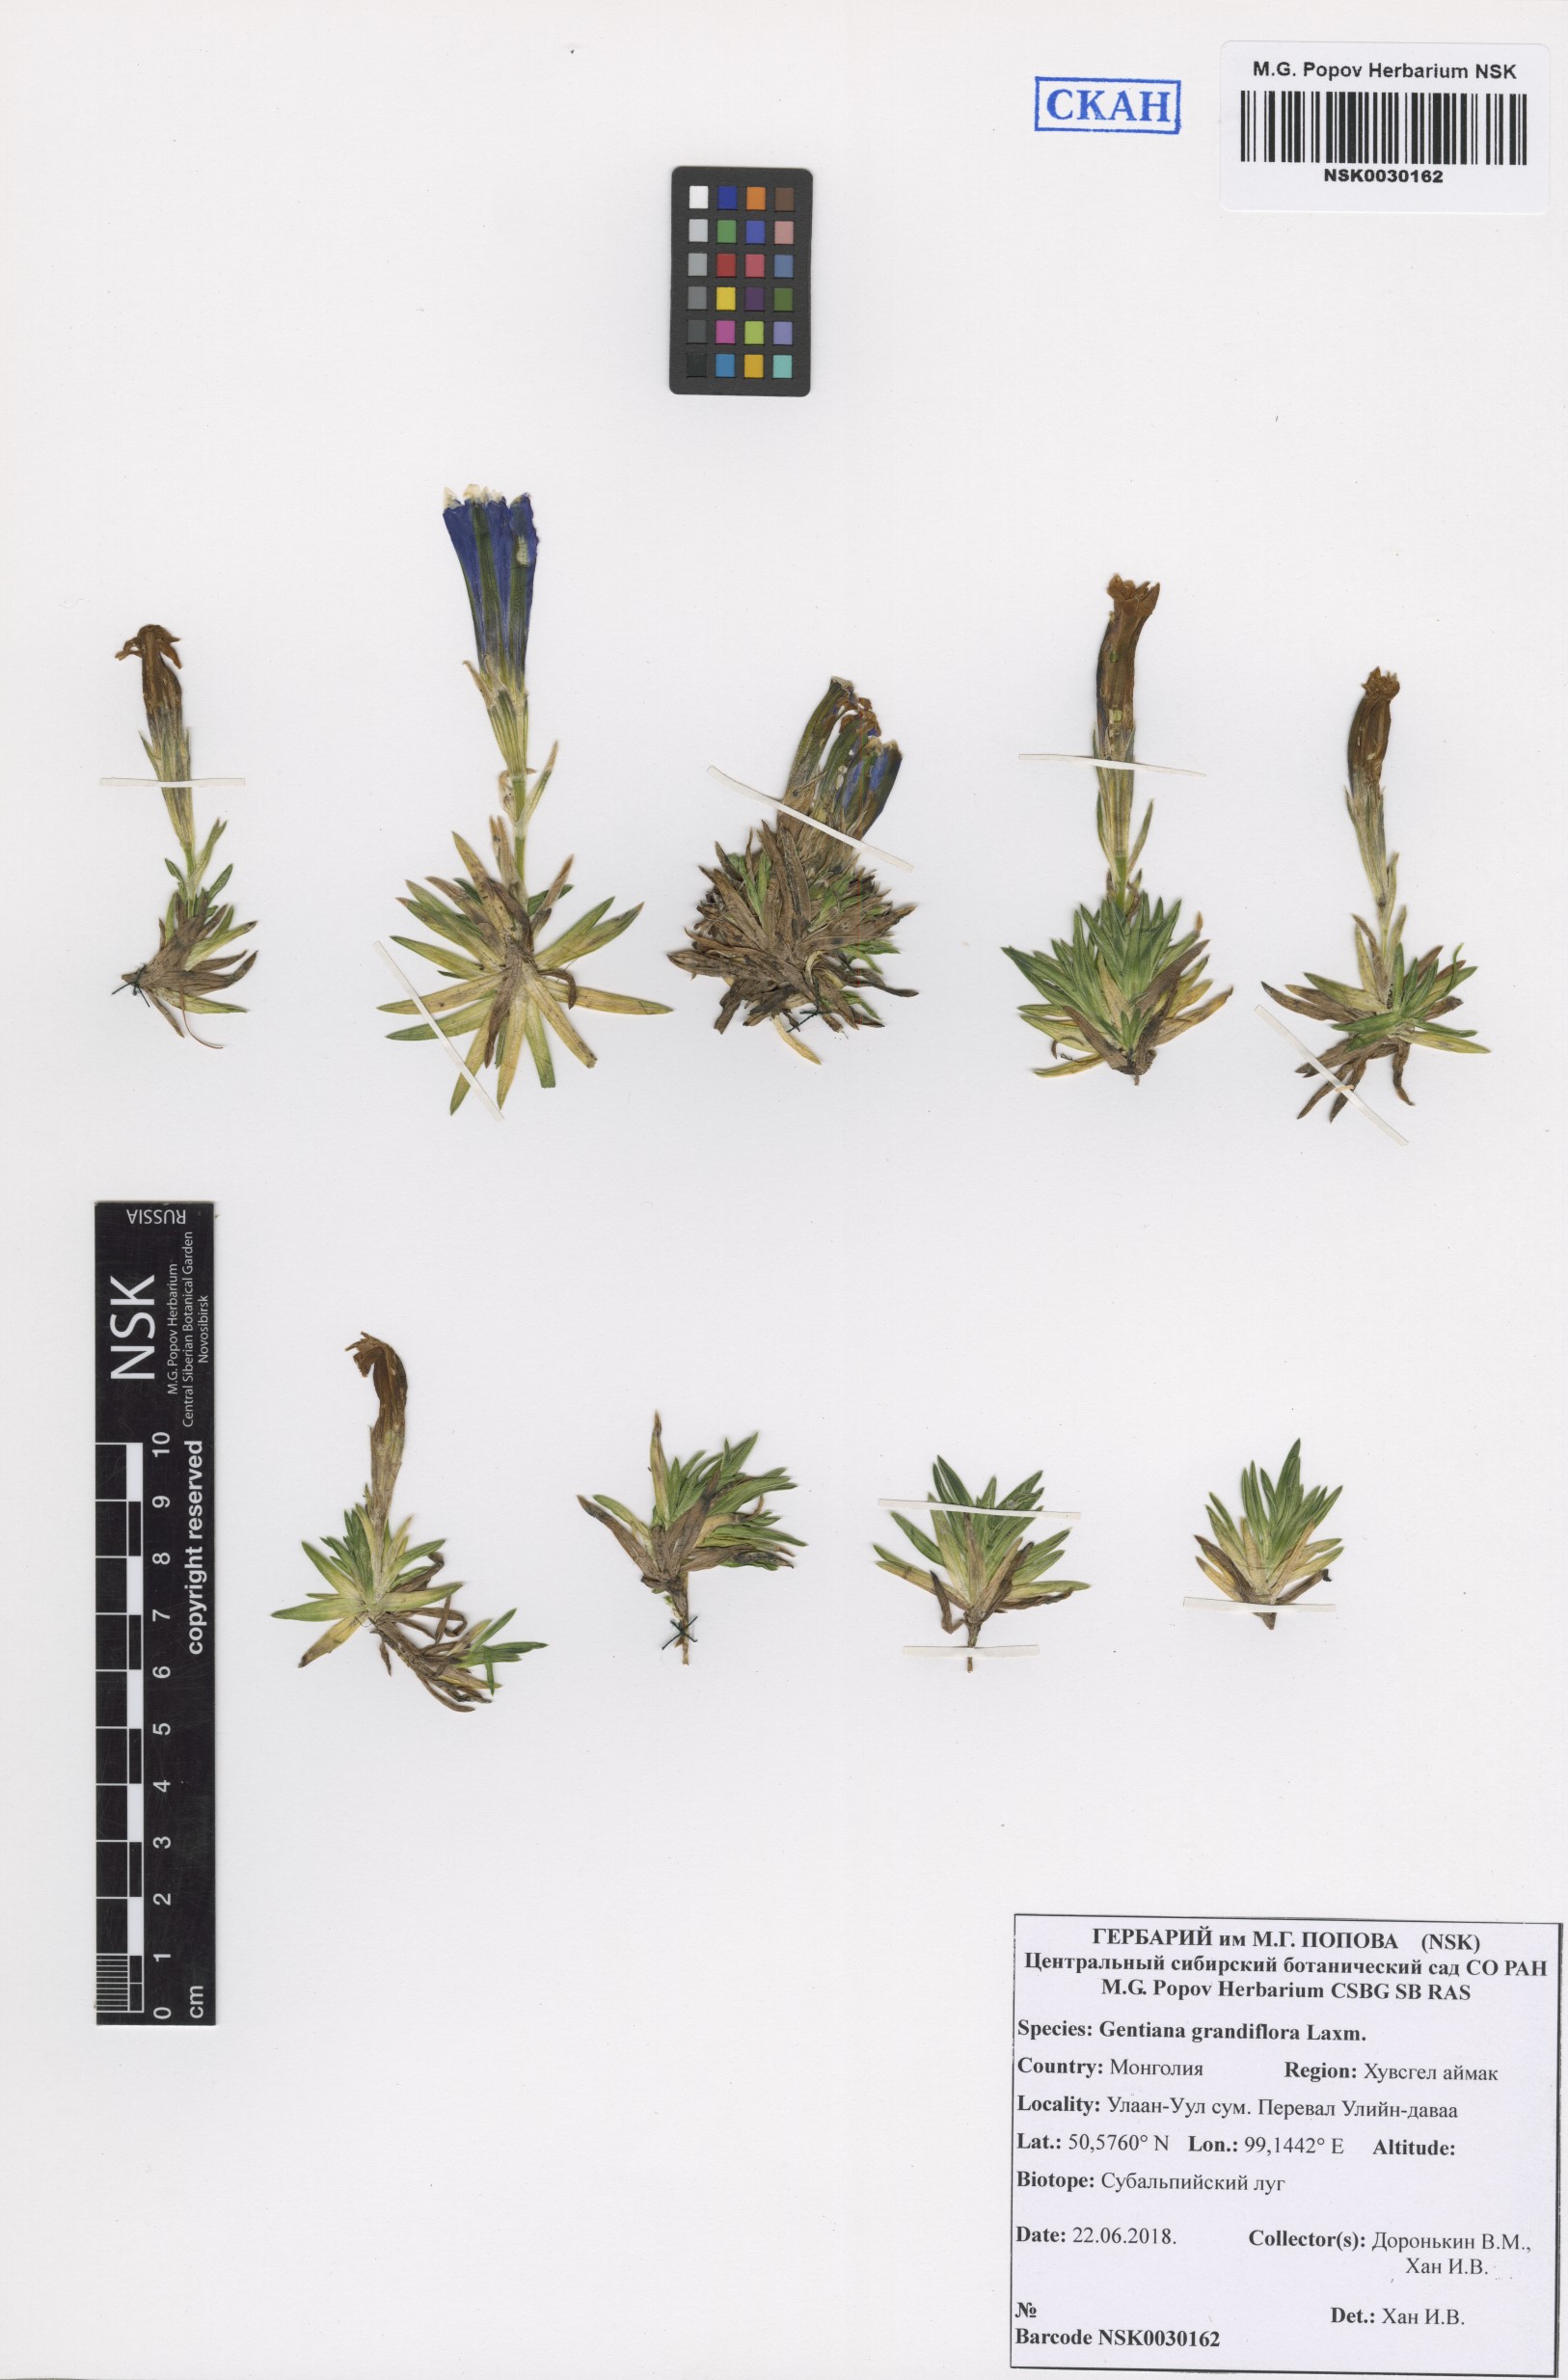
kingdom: Plantae
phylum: Tracheophyta
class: Magnoliopsida
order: Gentianales
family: Gentianaceae
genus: Gentiana
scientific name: Gentiana grandiflora
